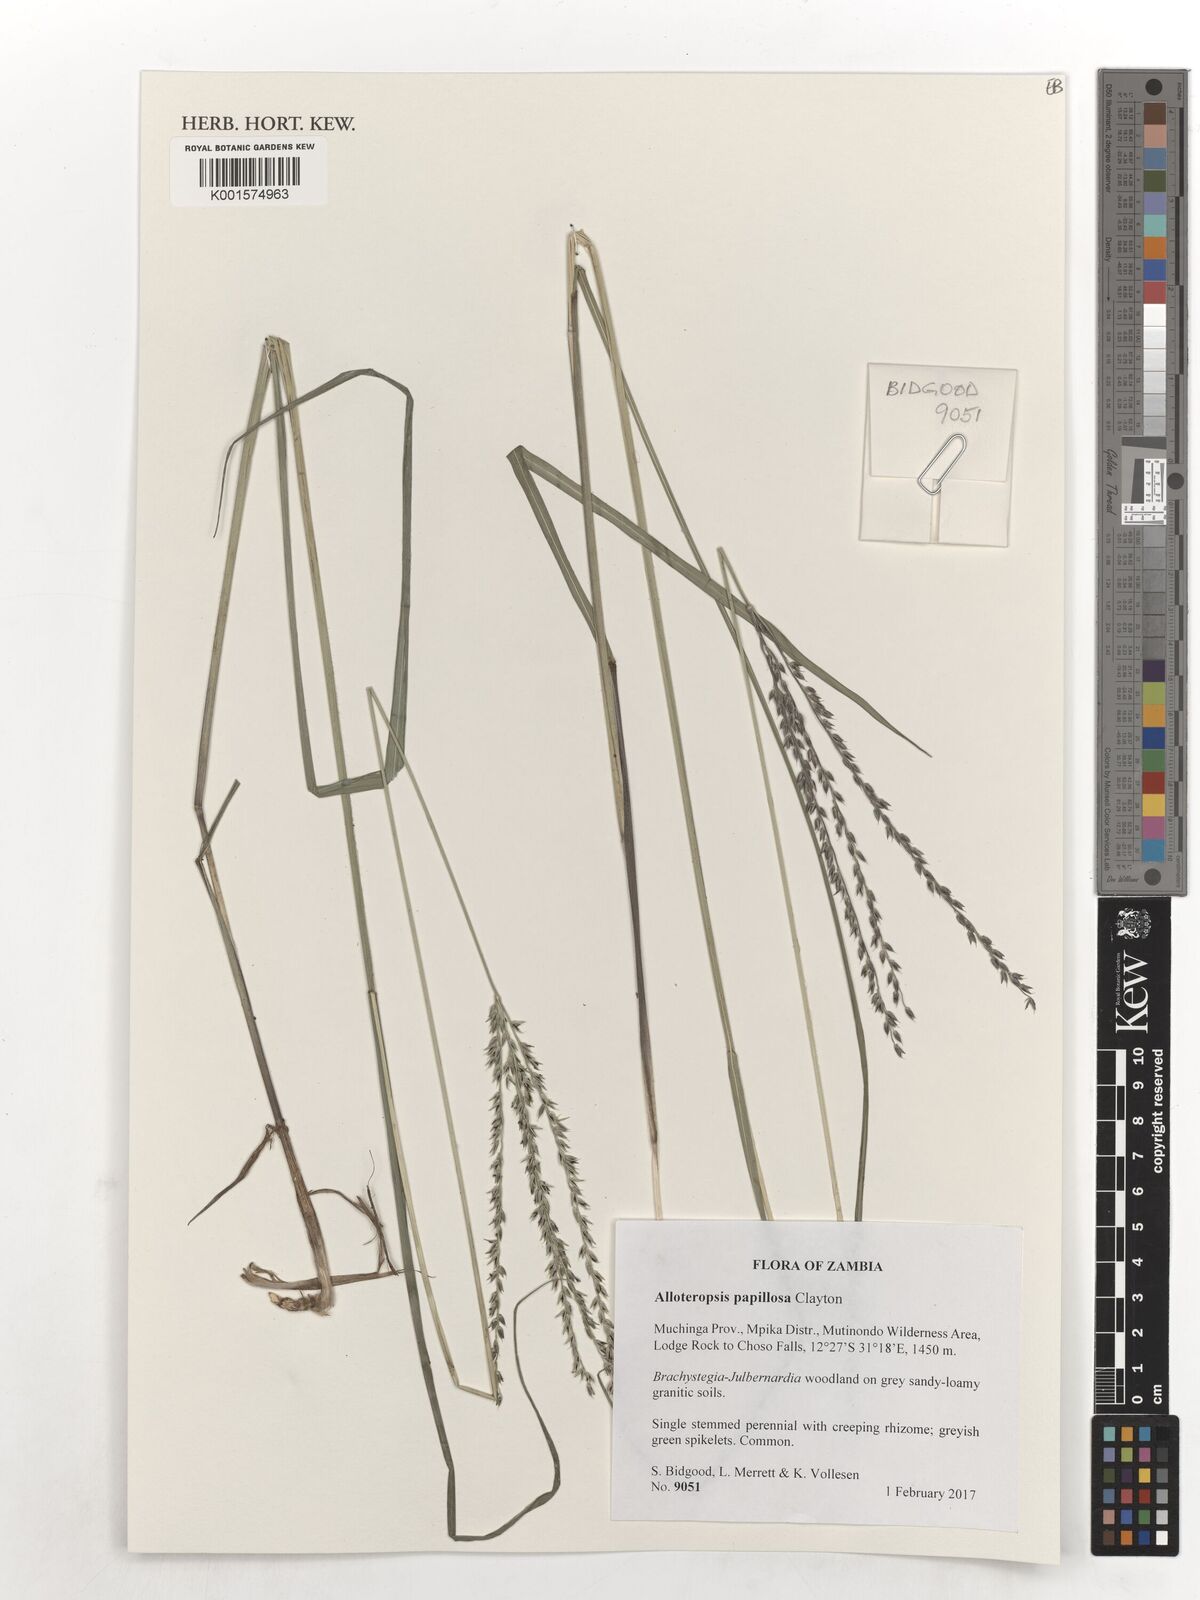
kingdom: Plantae
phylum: Tracheophyta
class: Liliopsida
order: Poales
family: Poaceae
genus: Alloteropsis
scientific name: Alloteropsis papillosa
